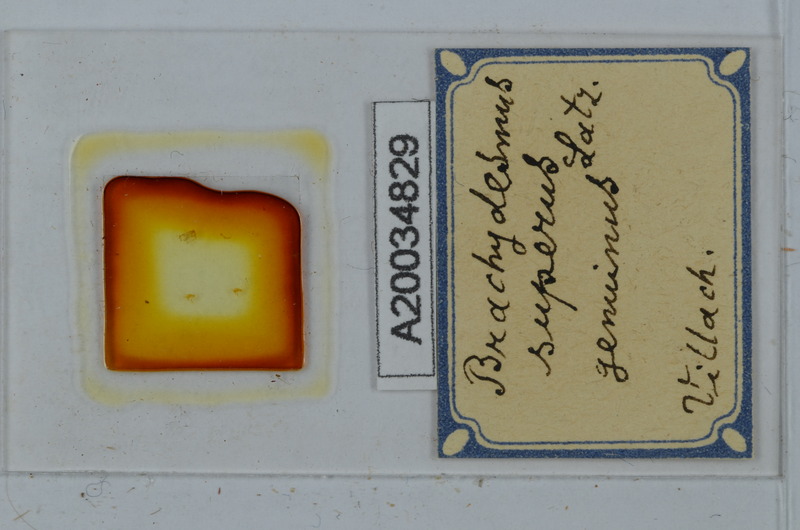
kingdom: Animalia
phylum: Arthropoda
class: Diplopoda
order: Polydesmida
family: Polydesmidae
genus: Brachydesmus
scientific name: Brachydesmus superus
